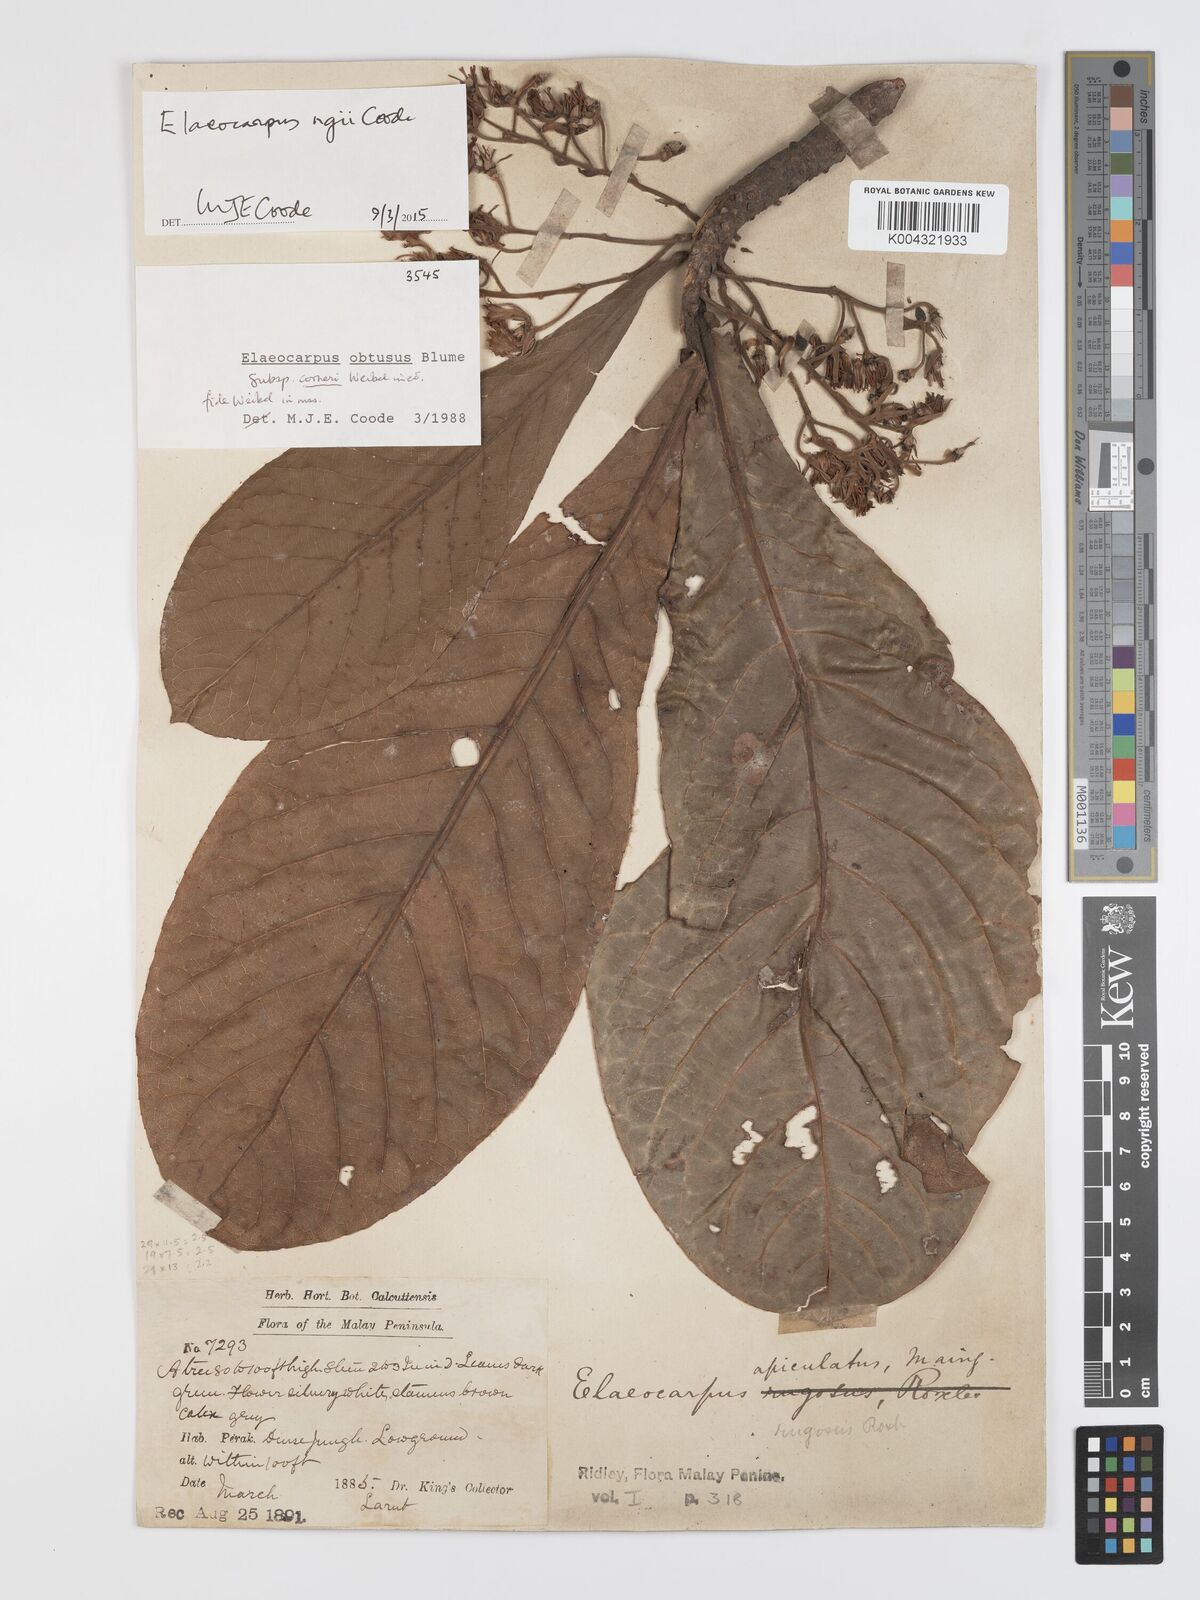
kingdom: Plantae
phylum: Tracheophyta
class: Magnoliopsida
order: Oxalidales
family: Elaeocarpaceae
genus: Elaeocarpus
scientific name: Elaeocarpus obtusus
